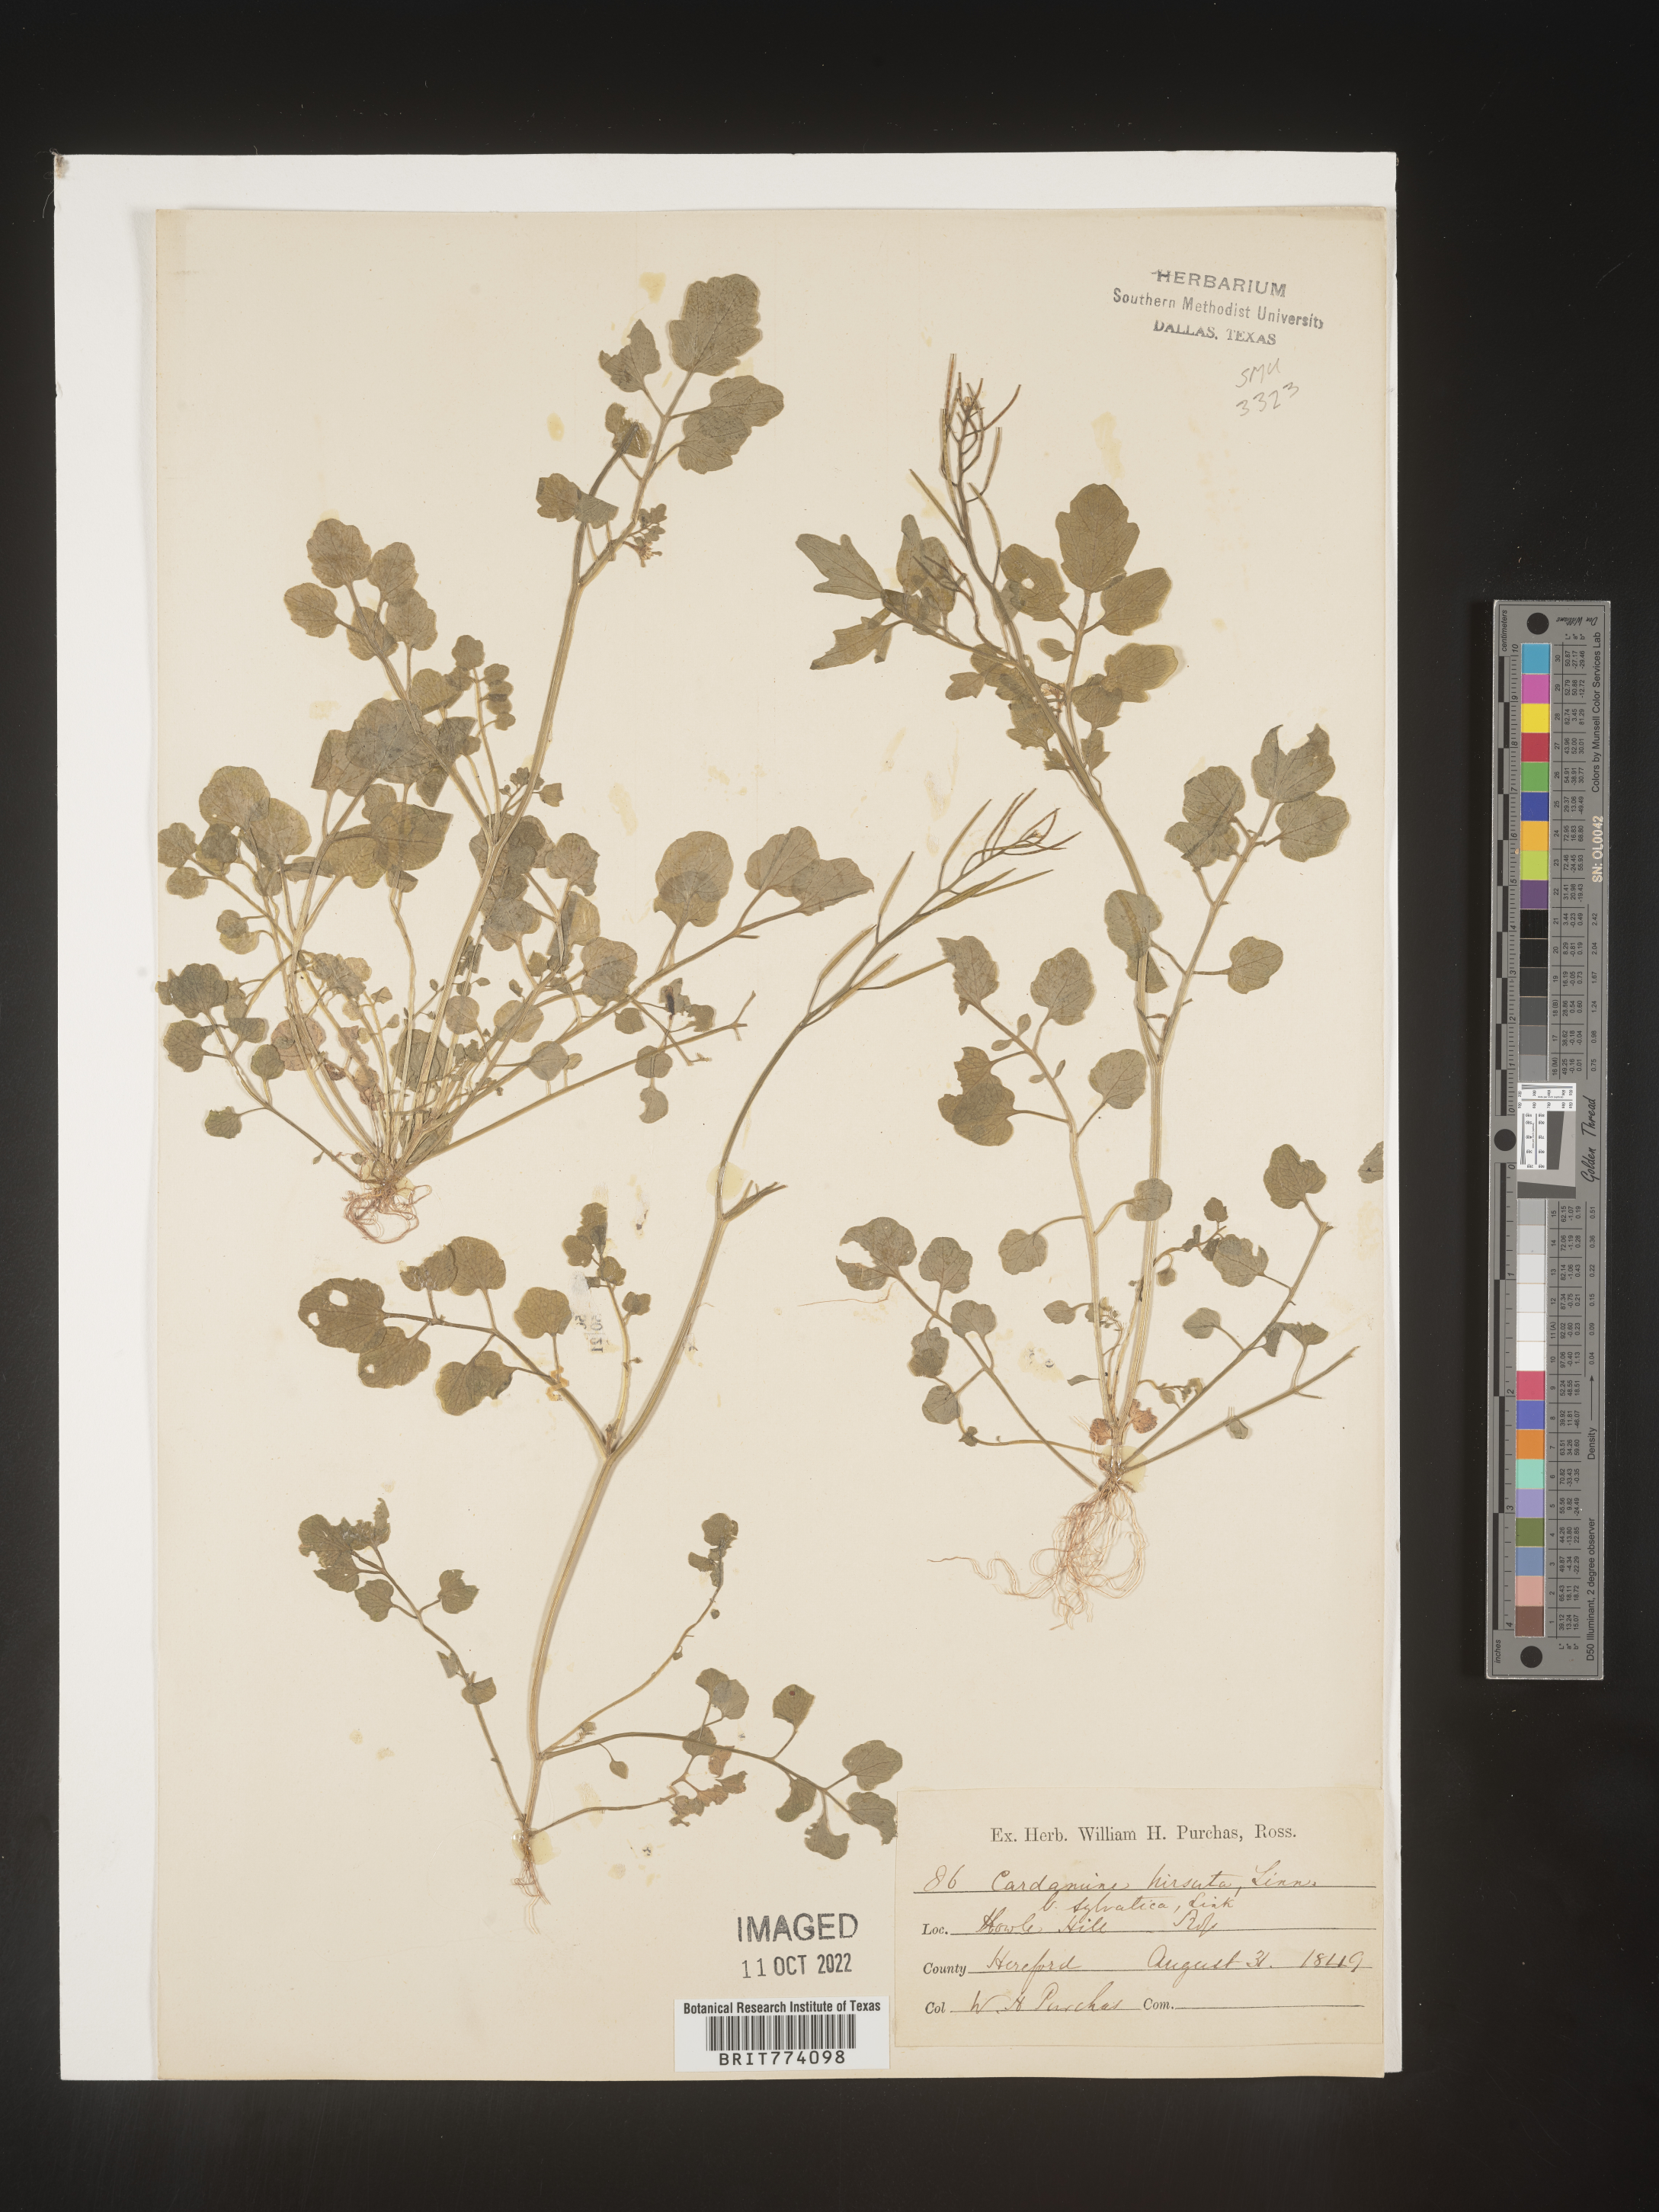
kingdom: Plantae
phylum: Tracheophyta
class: Magnoliopsida
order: Brassicales
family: Brassicaceae
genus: Cardamine
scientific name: Cardamine hirsuta
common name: Hairy bittercress
